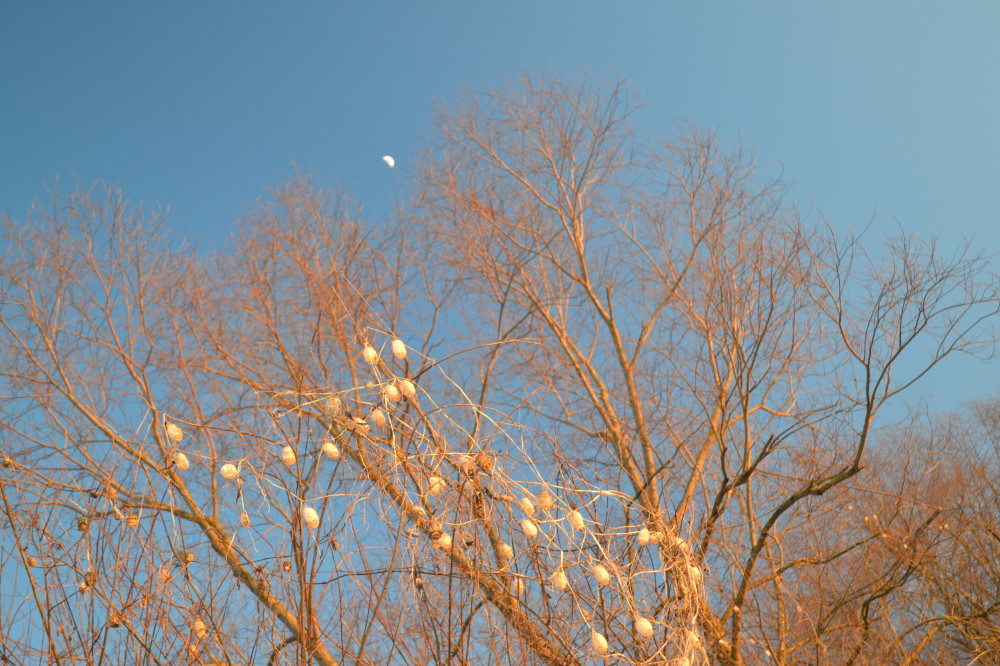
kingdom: Plantae
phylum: Tracheophyta
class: Magnoliopsida
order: Cucurbitales
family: Cucurbitaceae
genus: Echinocystis
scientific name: Echinocystis lobata
